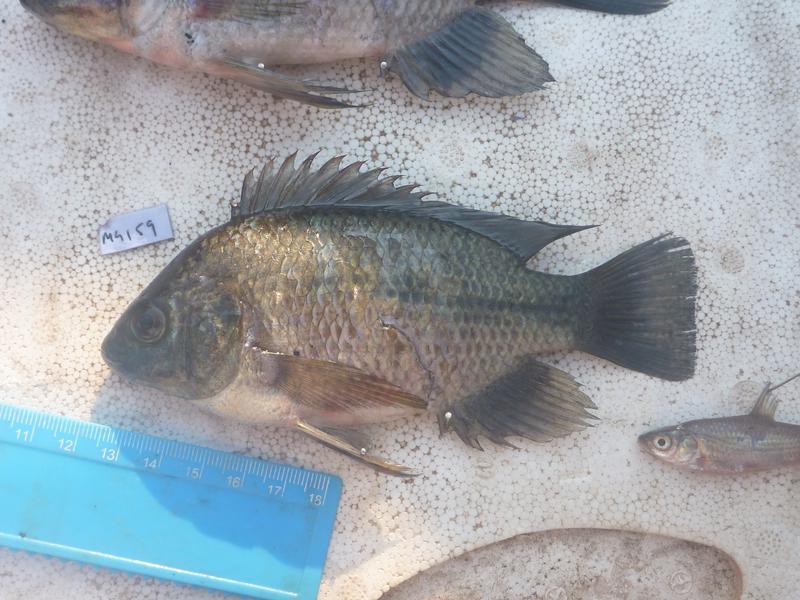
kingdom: Animalia
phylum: Chordata
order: Perciformes
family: Cichlidae
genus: Oreochromis
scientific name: Oreochromis upembae
